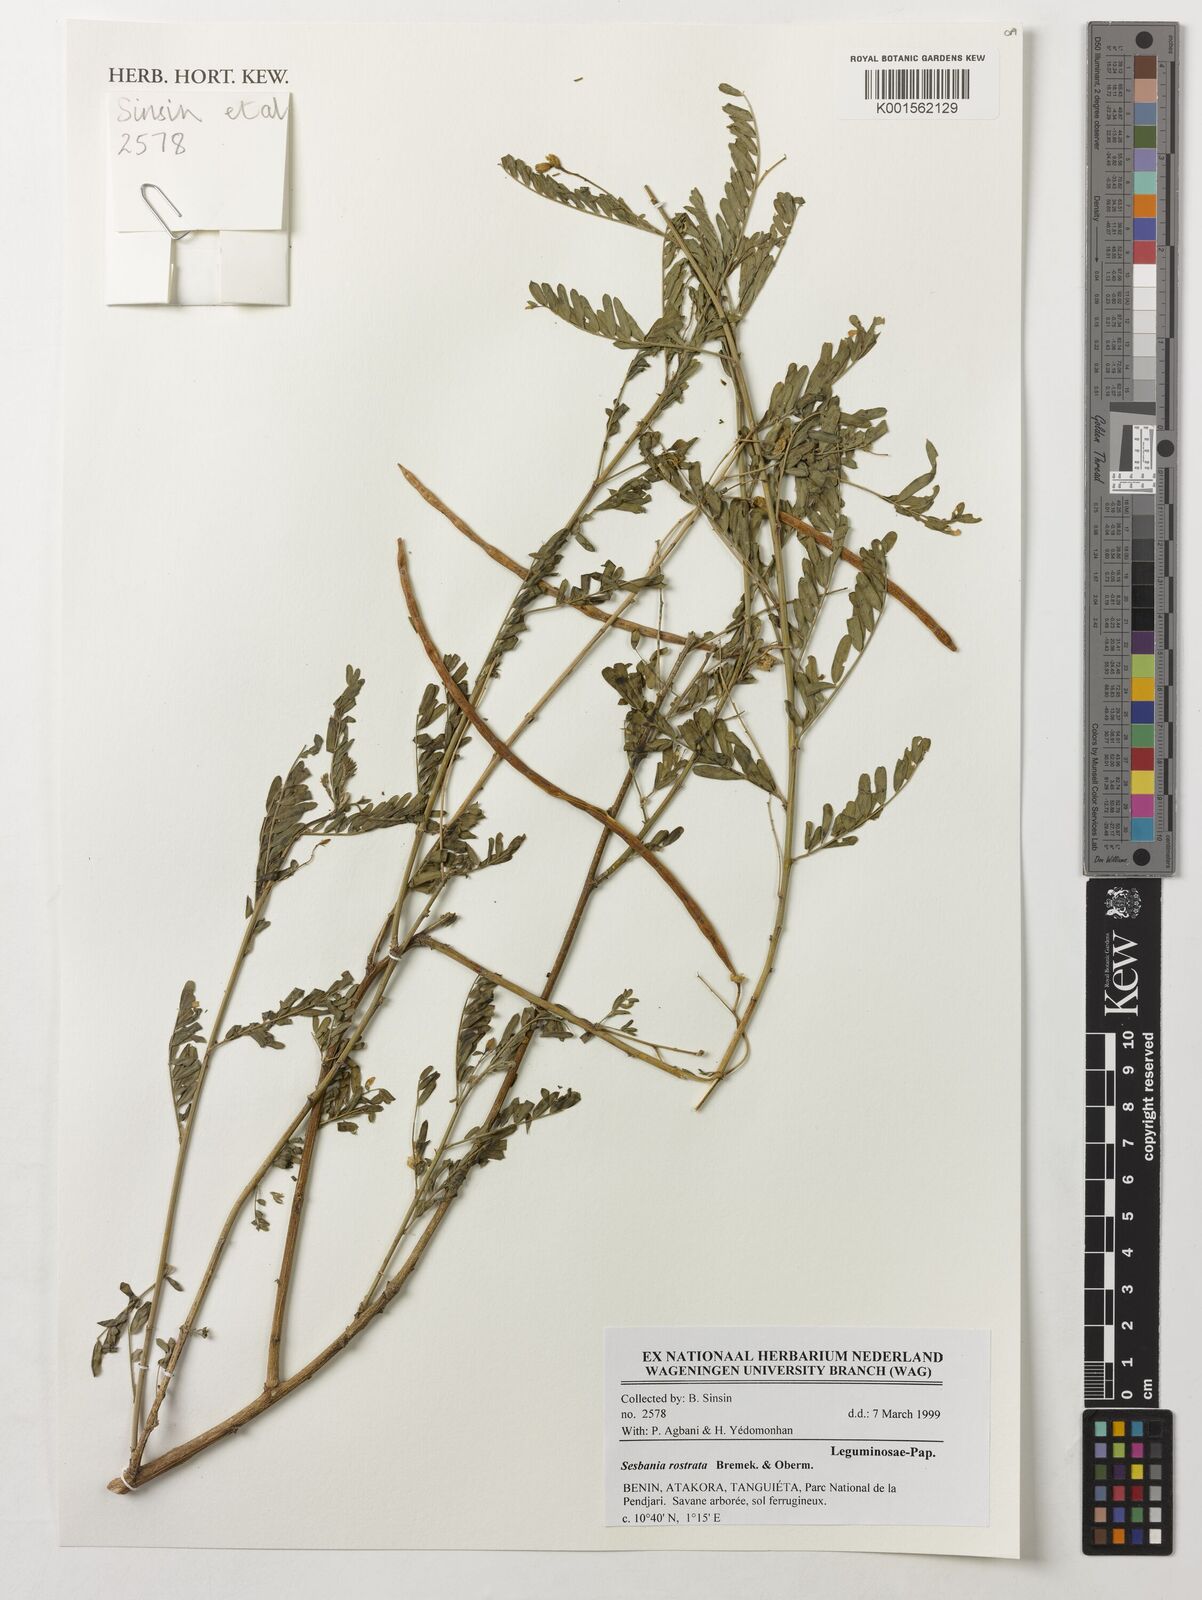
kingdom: Plantae
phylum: Tracheophyta
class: Magnoliopsida
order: Fabales
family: Fabaceae
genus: Sesbania
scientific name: Sesbania rostrata
